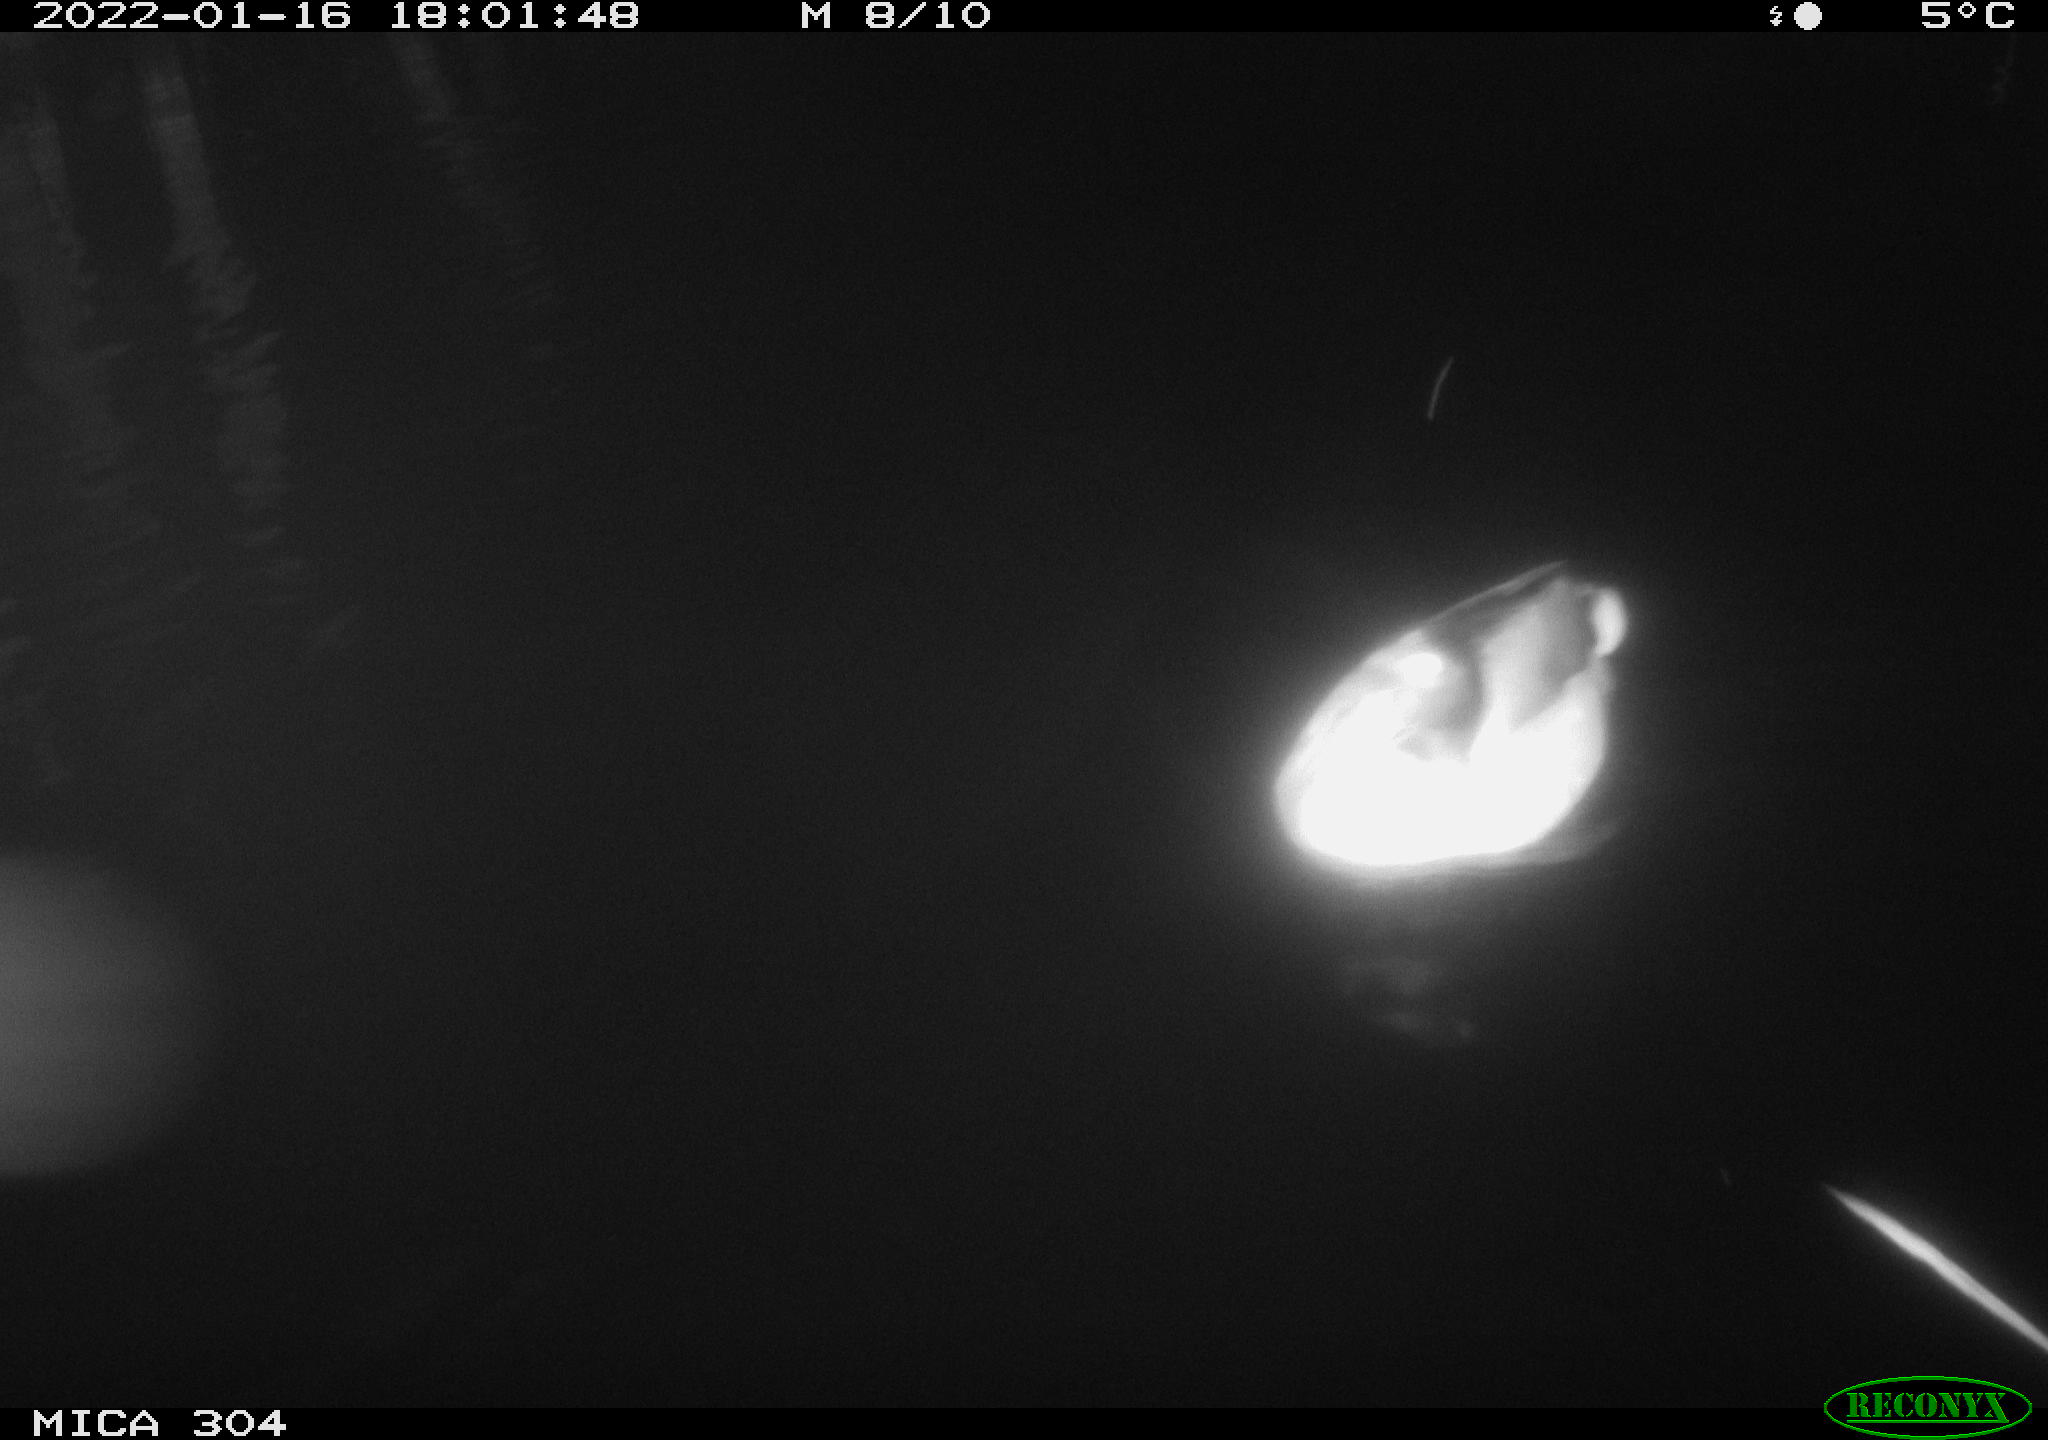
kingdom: Animalia
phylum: Chordata
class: Aves
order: Anseriformes
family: Anatidae
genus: Anas
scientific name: Anas
